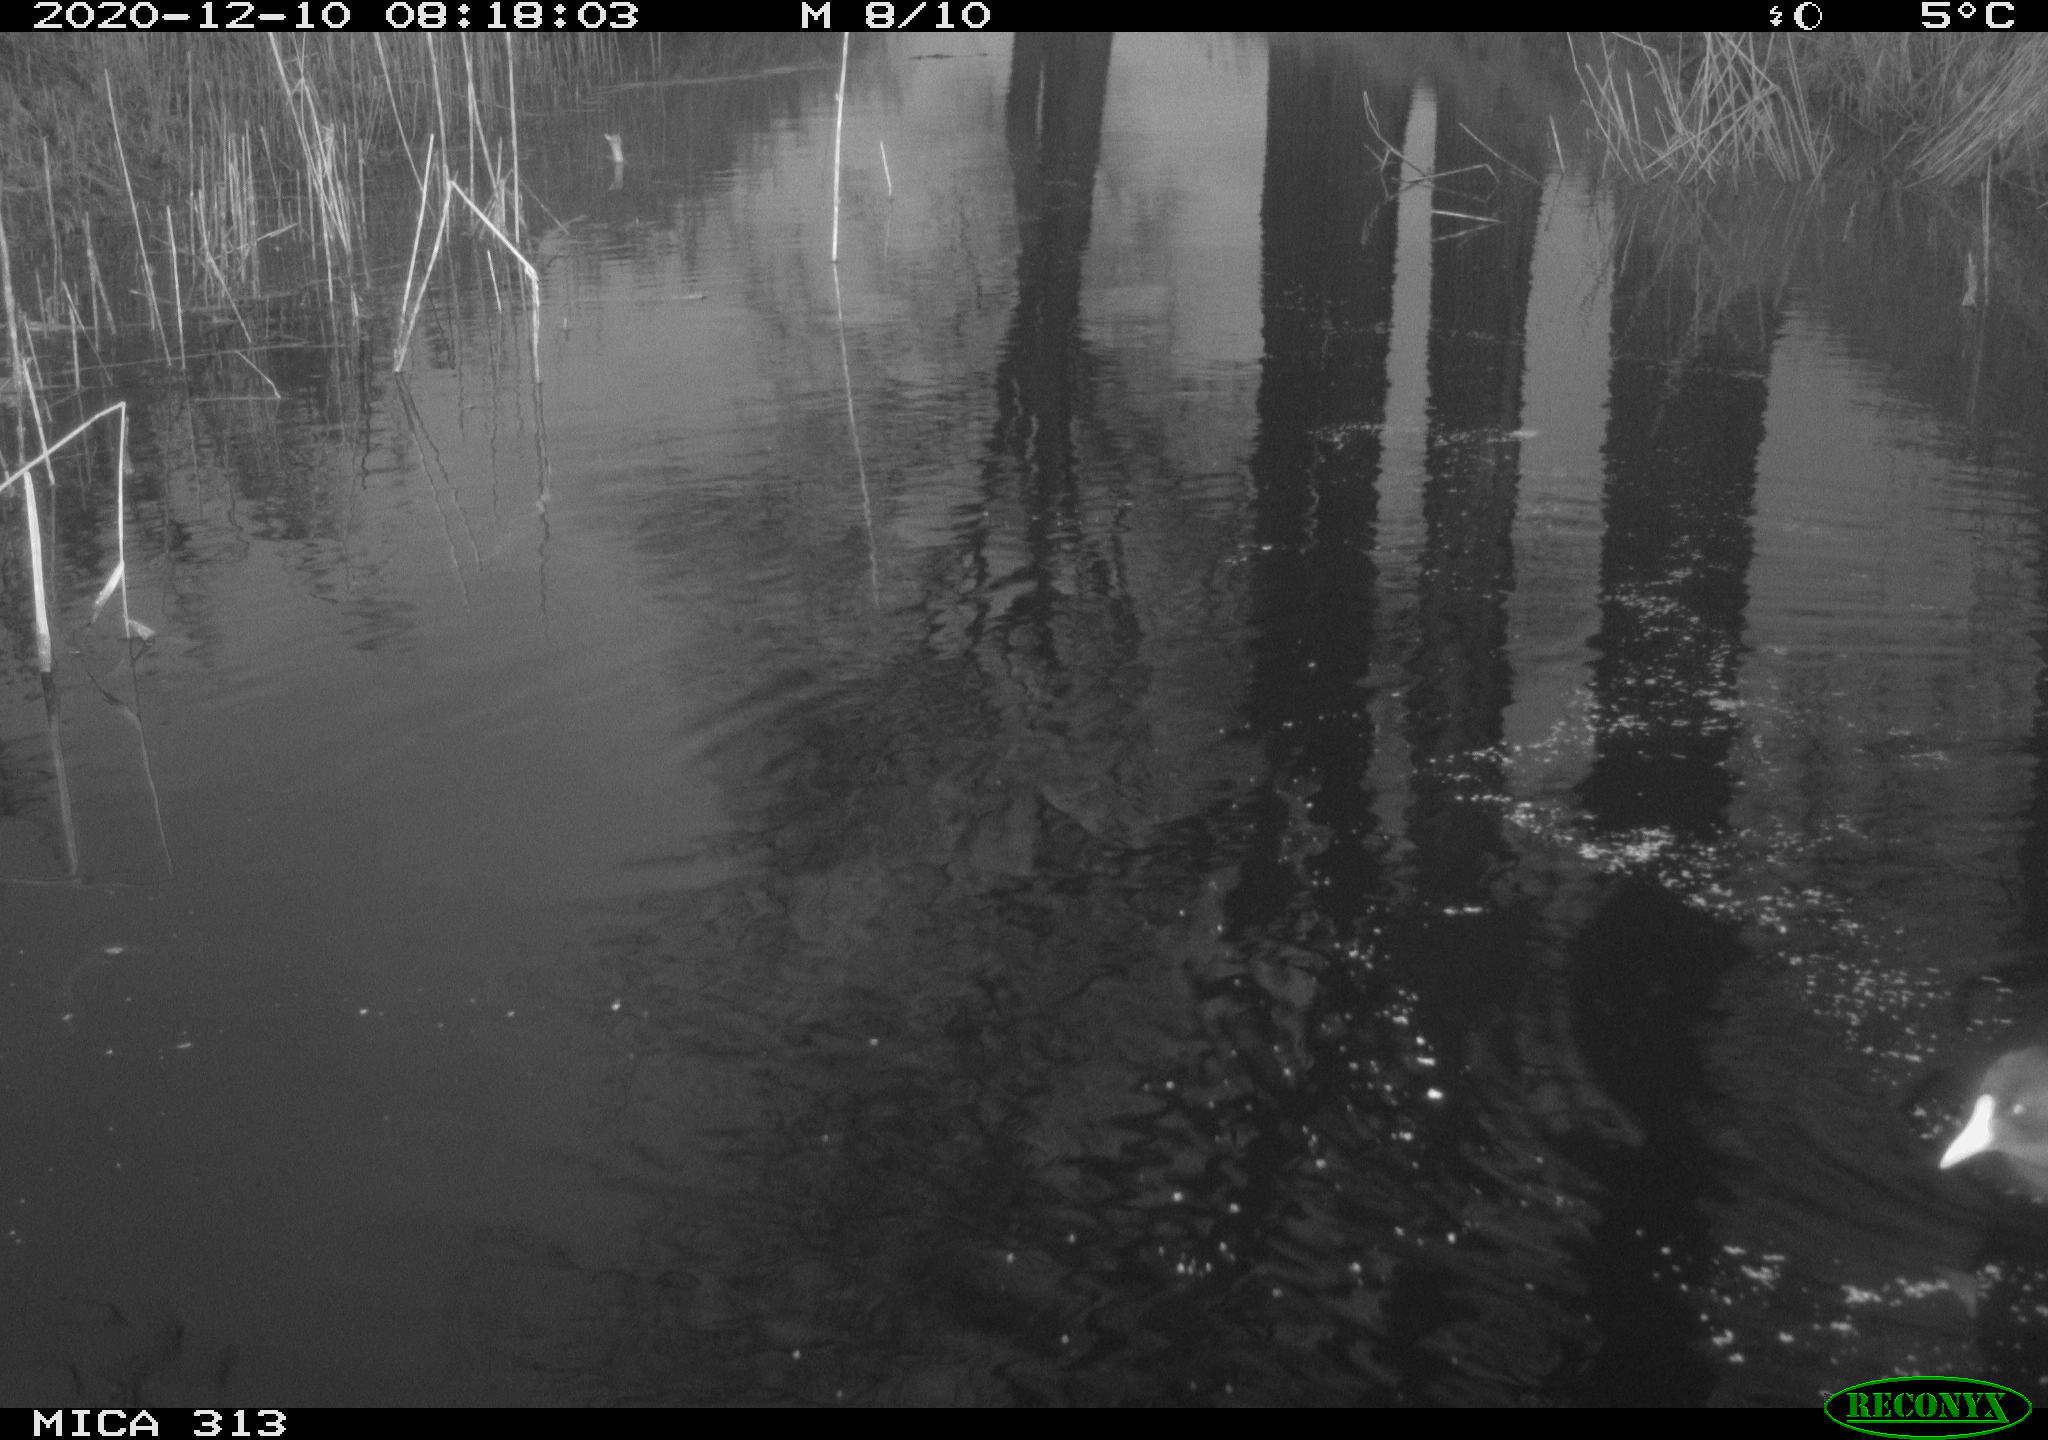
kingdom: Animalia
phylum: Chordata
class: Aves
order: Gruiformes
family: Rallidae
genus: Gallinula
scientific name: Gallinula chloropus
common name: Common moorhen
